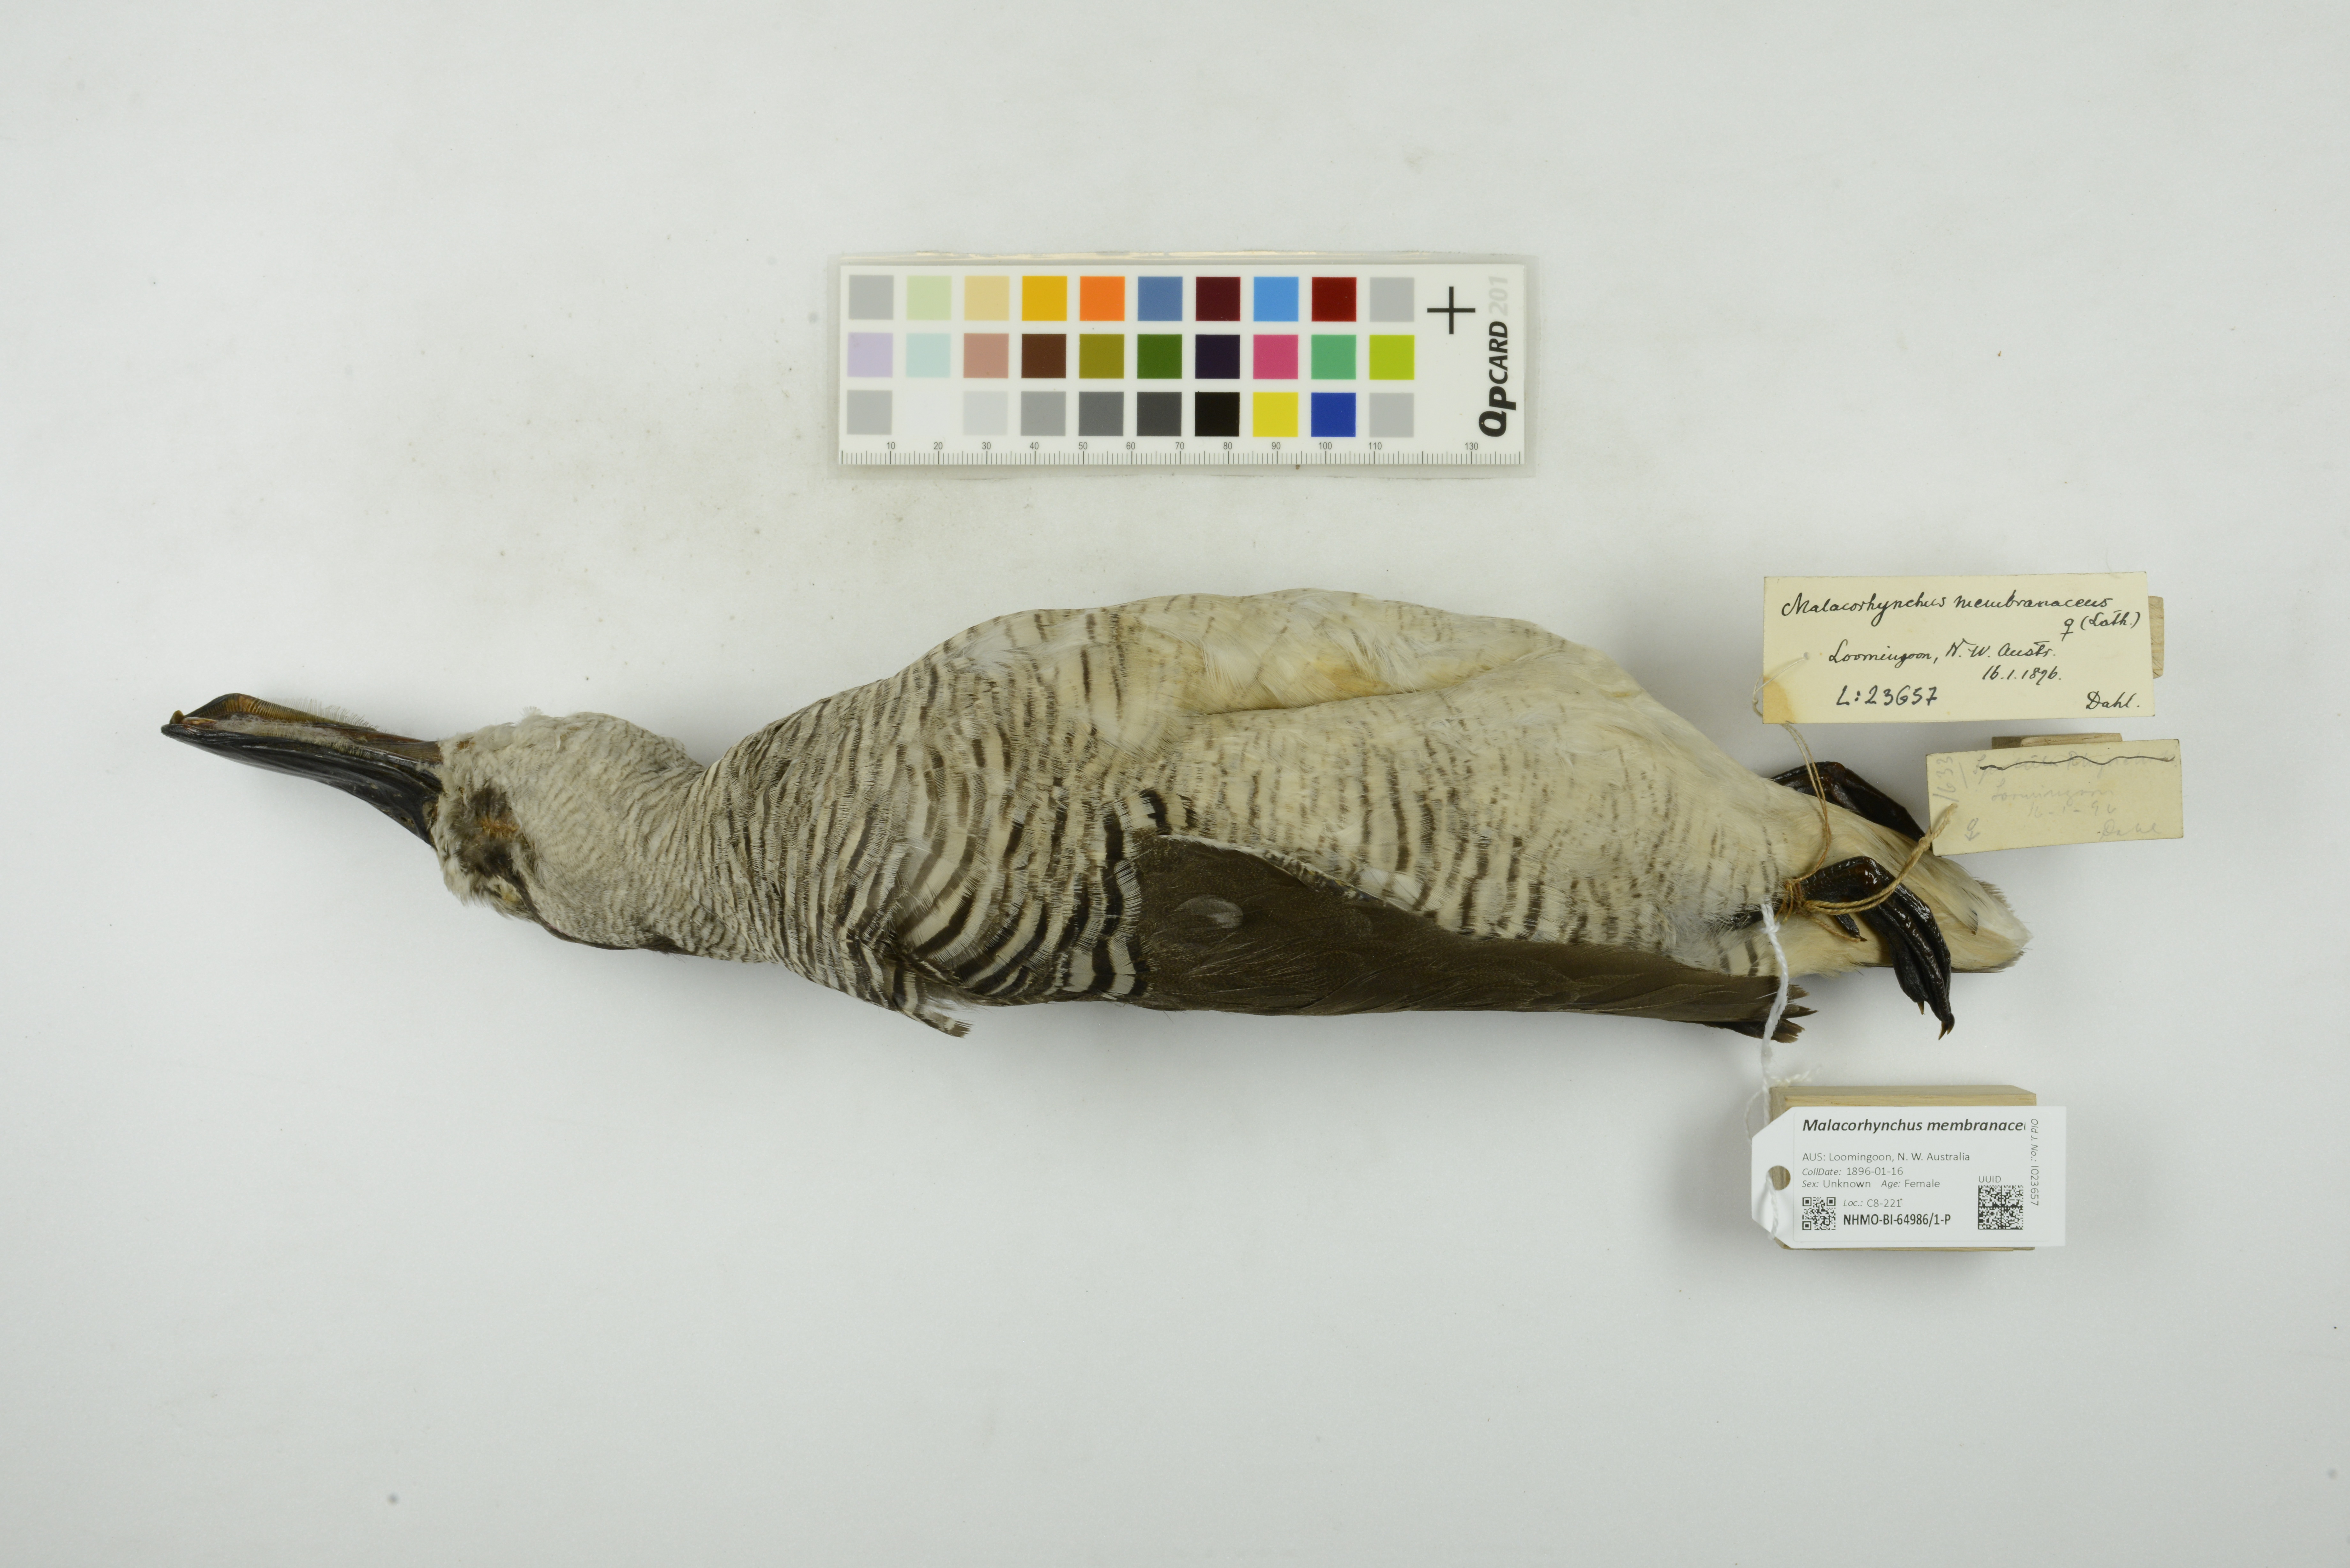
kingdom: Animalia
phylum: Chordata
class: Aves
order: Anseriformes
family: Anatidae
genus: Malacorhynchus
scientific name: Malacorhynchus membranaceus
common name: Pink-eared duck
